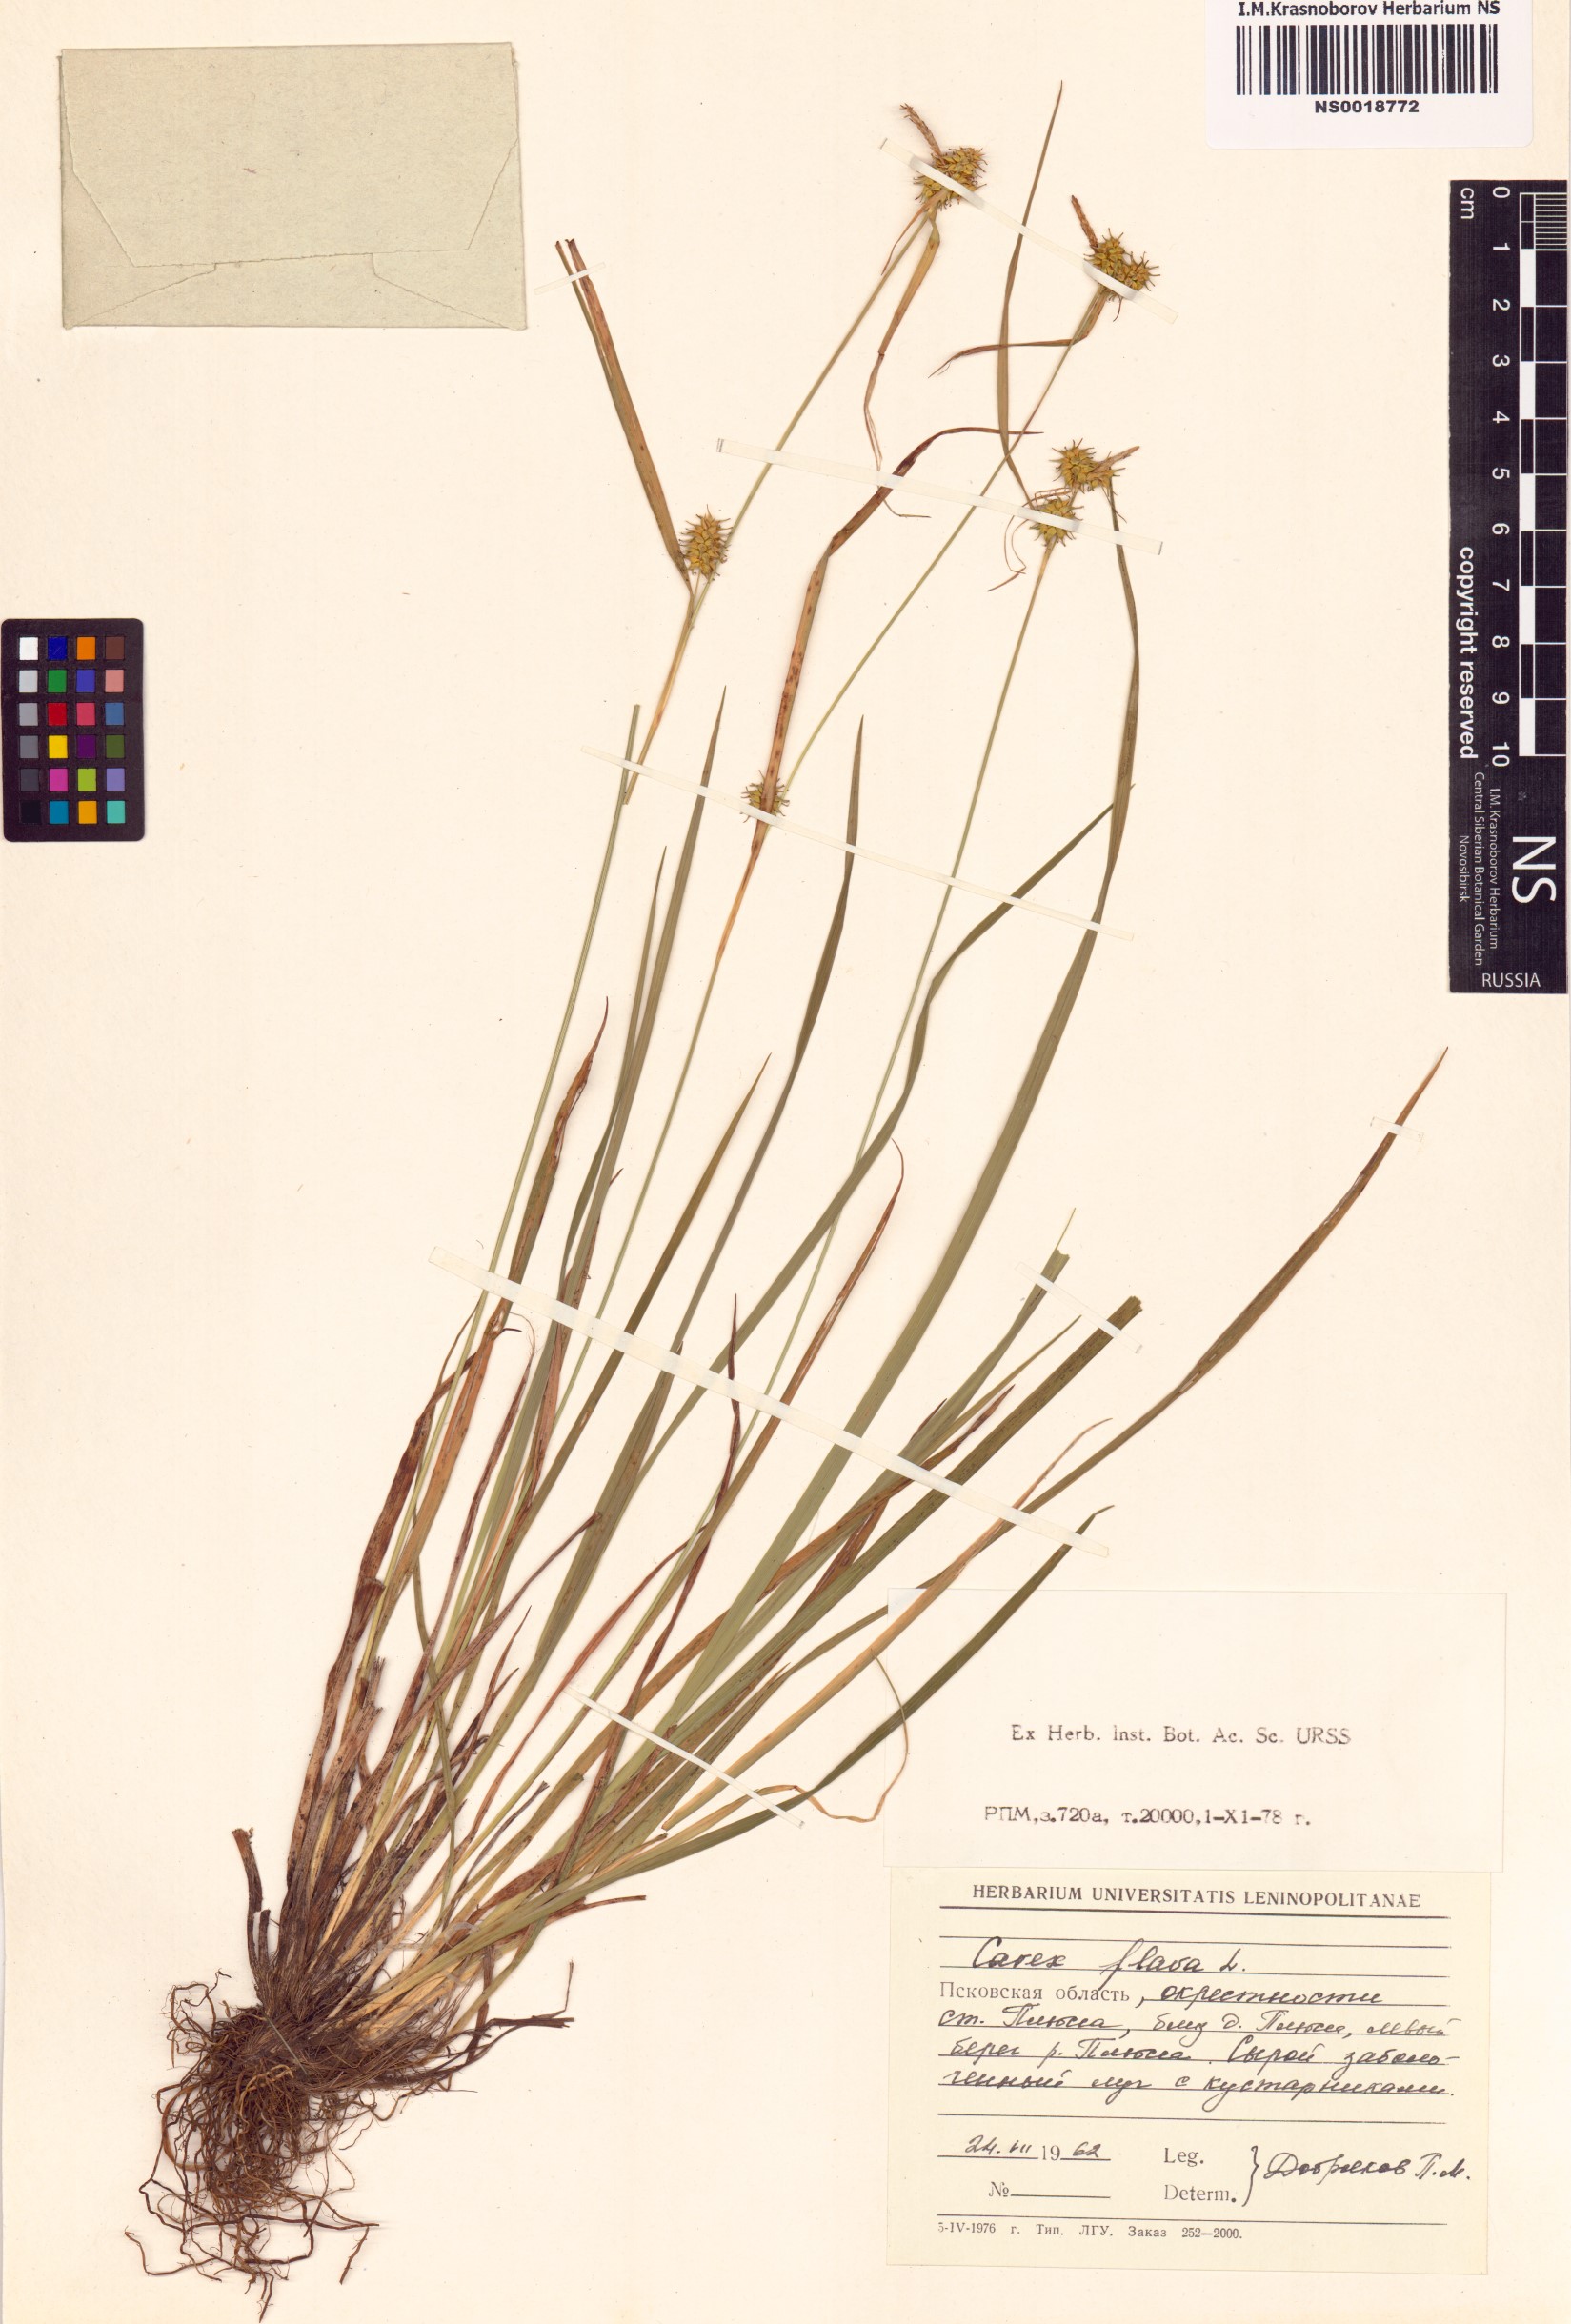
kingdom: Plantae
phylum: Tracheophyta
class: Liliopsida
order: Poales
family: Cyperaceae
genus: Carex
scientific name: Carex flava
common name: Large yellow-sedge
